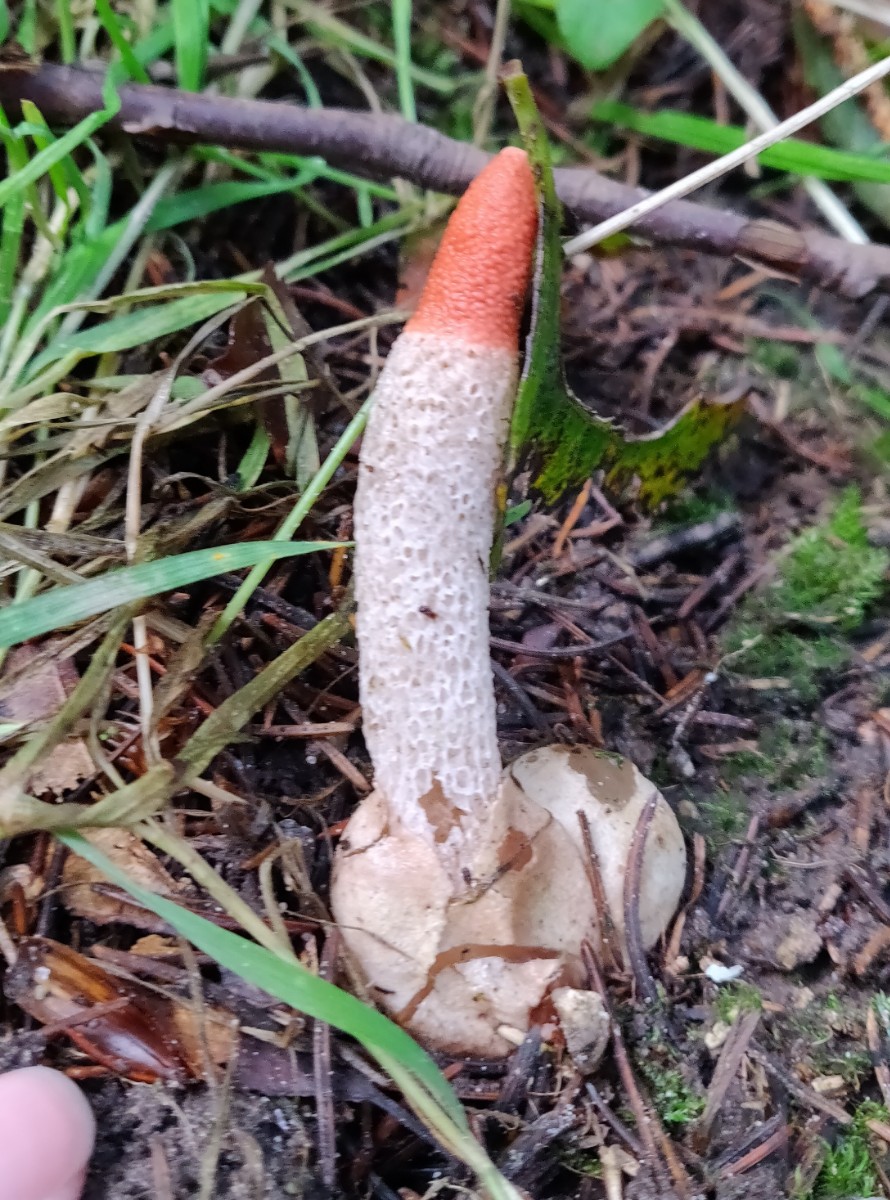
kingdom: Fungi
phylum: Basidiomycota
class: Agaricomycetes
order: Phallales
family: Phallaceae
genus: Mutinus
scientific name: Mutinus caninus
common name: hunde-stinksvamp
